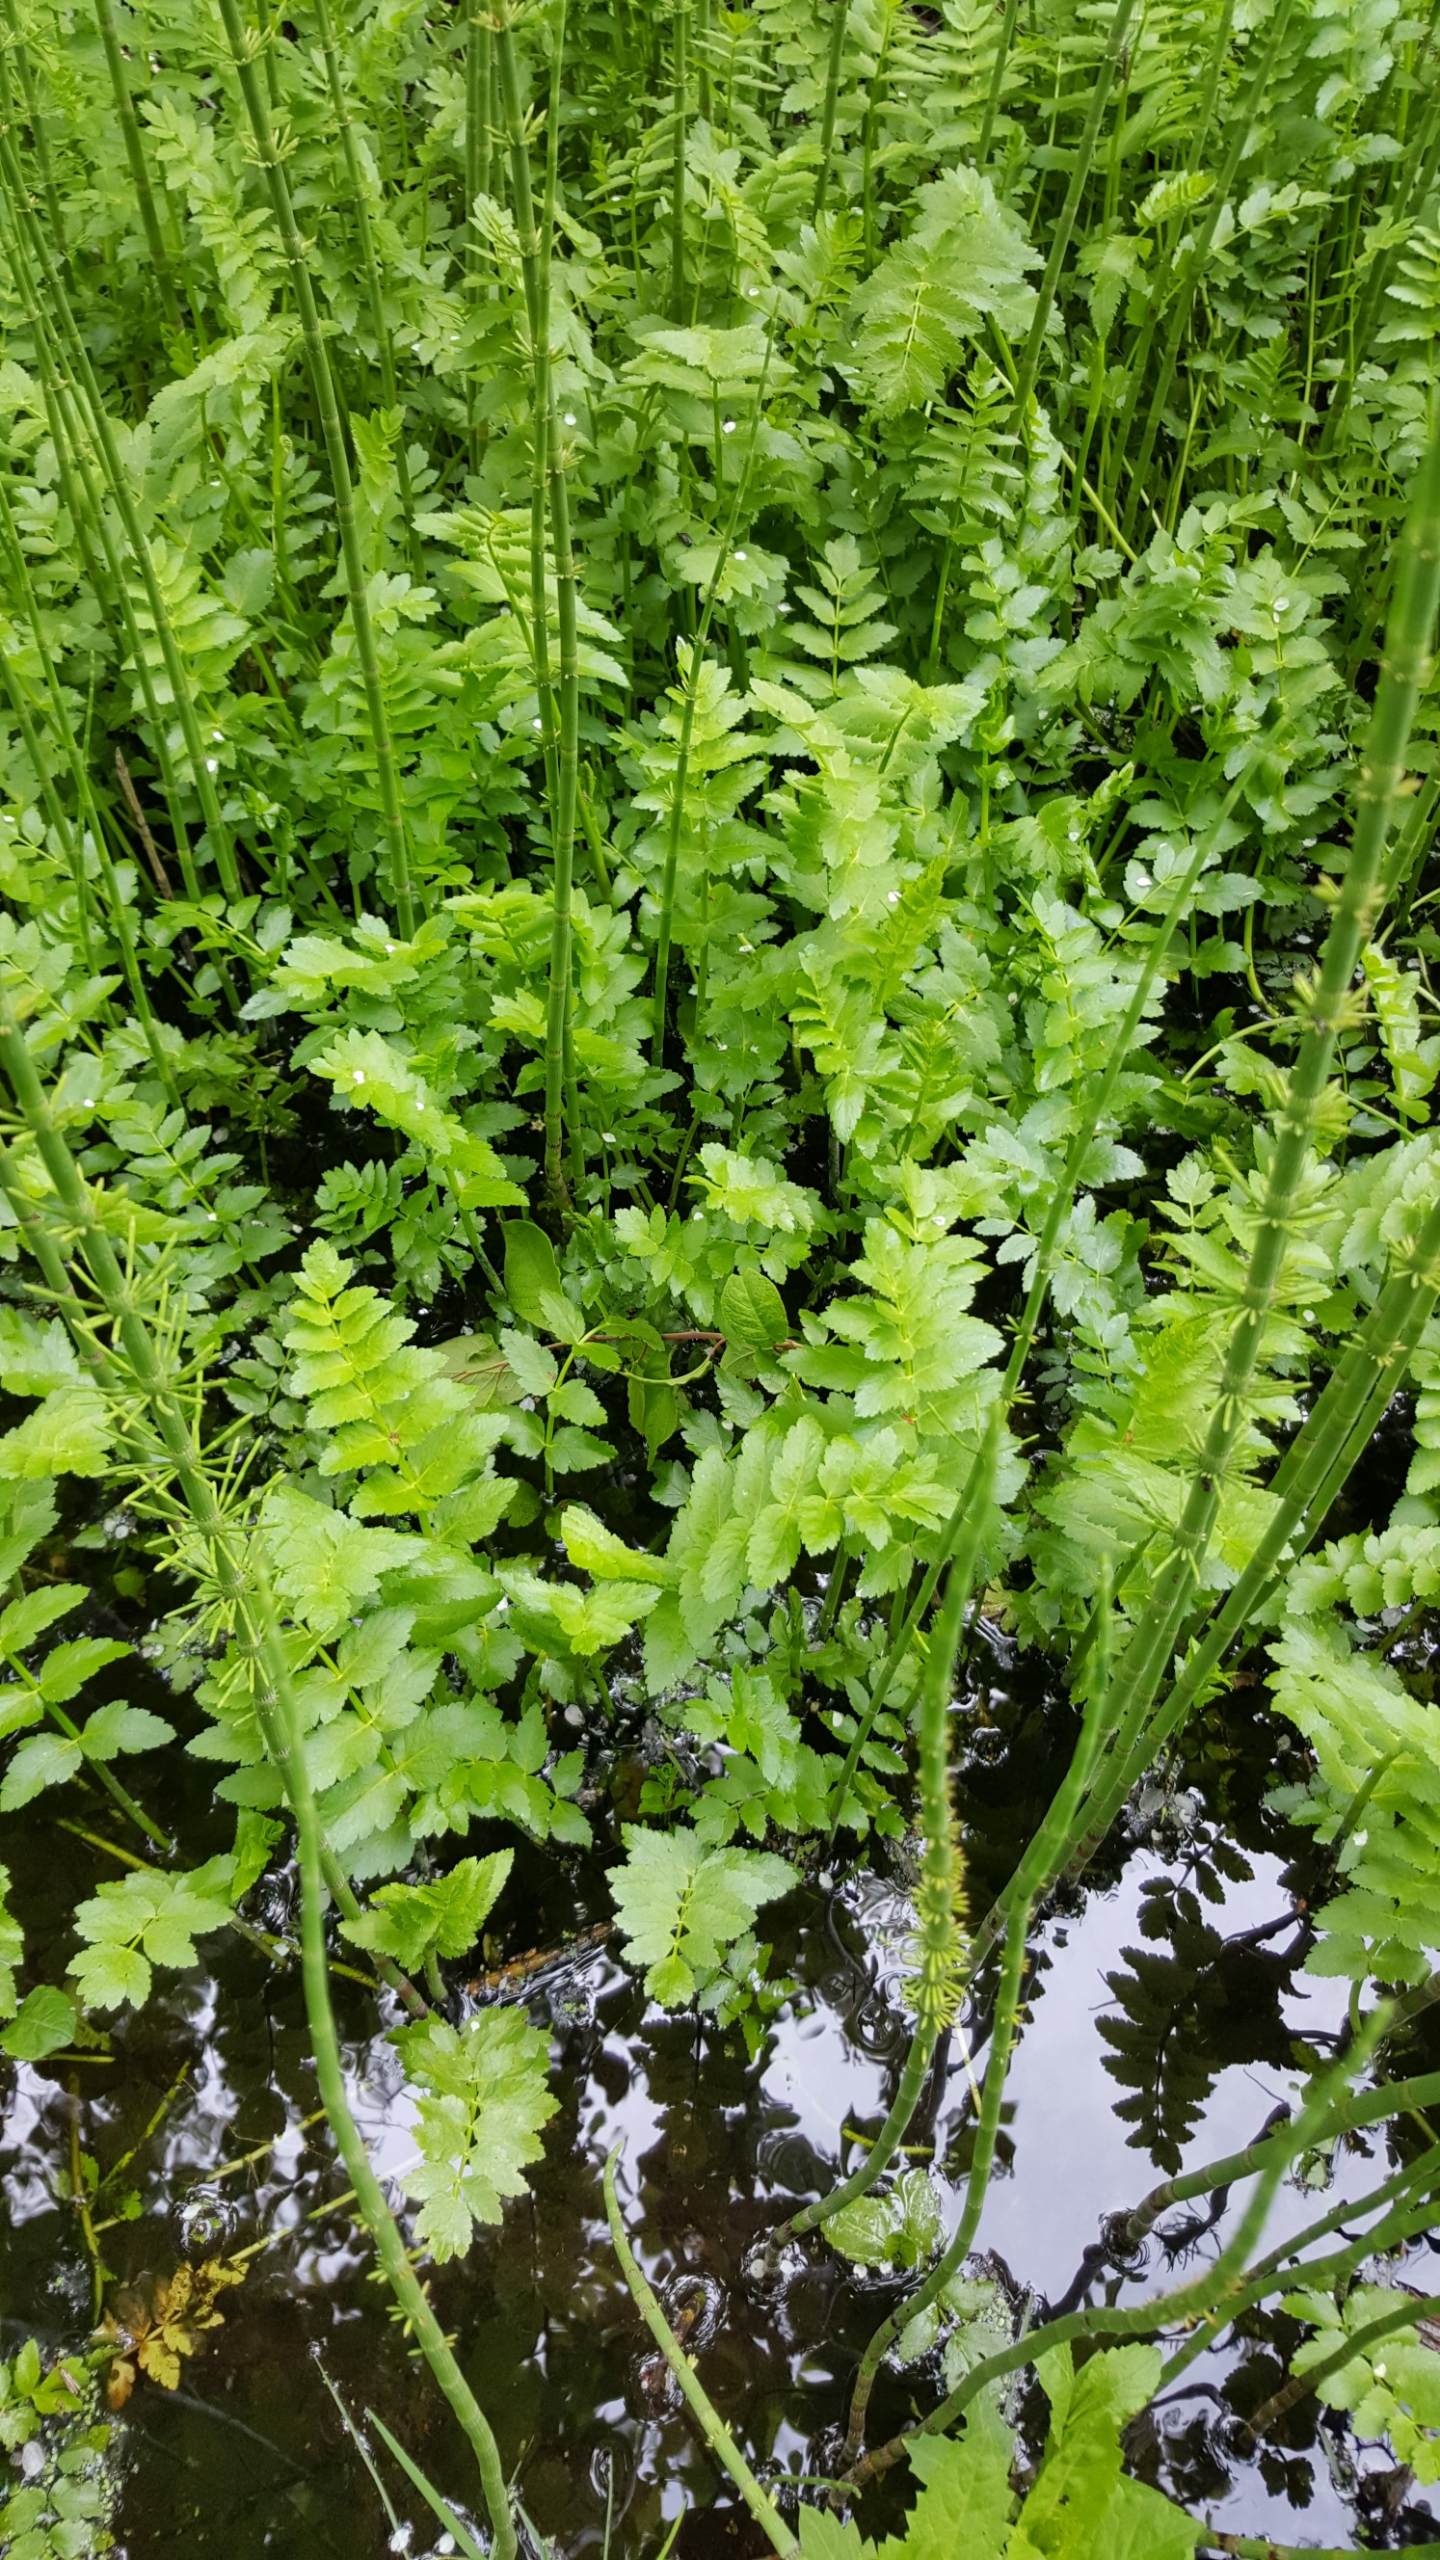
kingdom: Plantae
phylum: Tracheophyta
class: Magnoliopsida
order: Apiales
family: Apiaceae
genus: Berula
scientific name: Berula erecta
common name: Sideskærm
